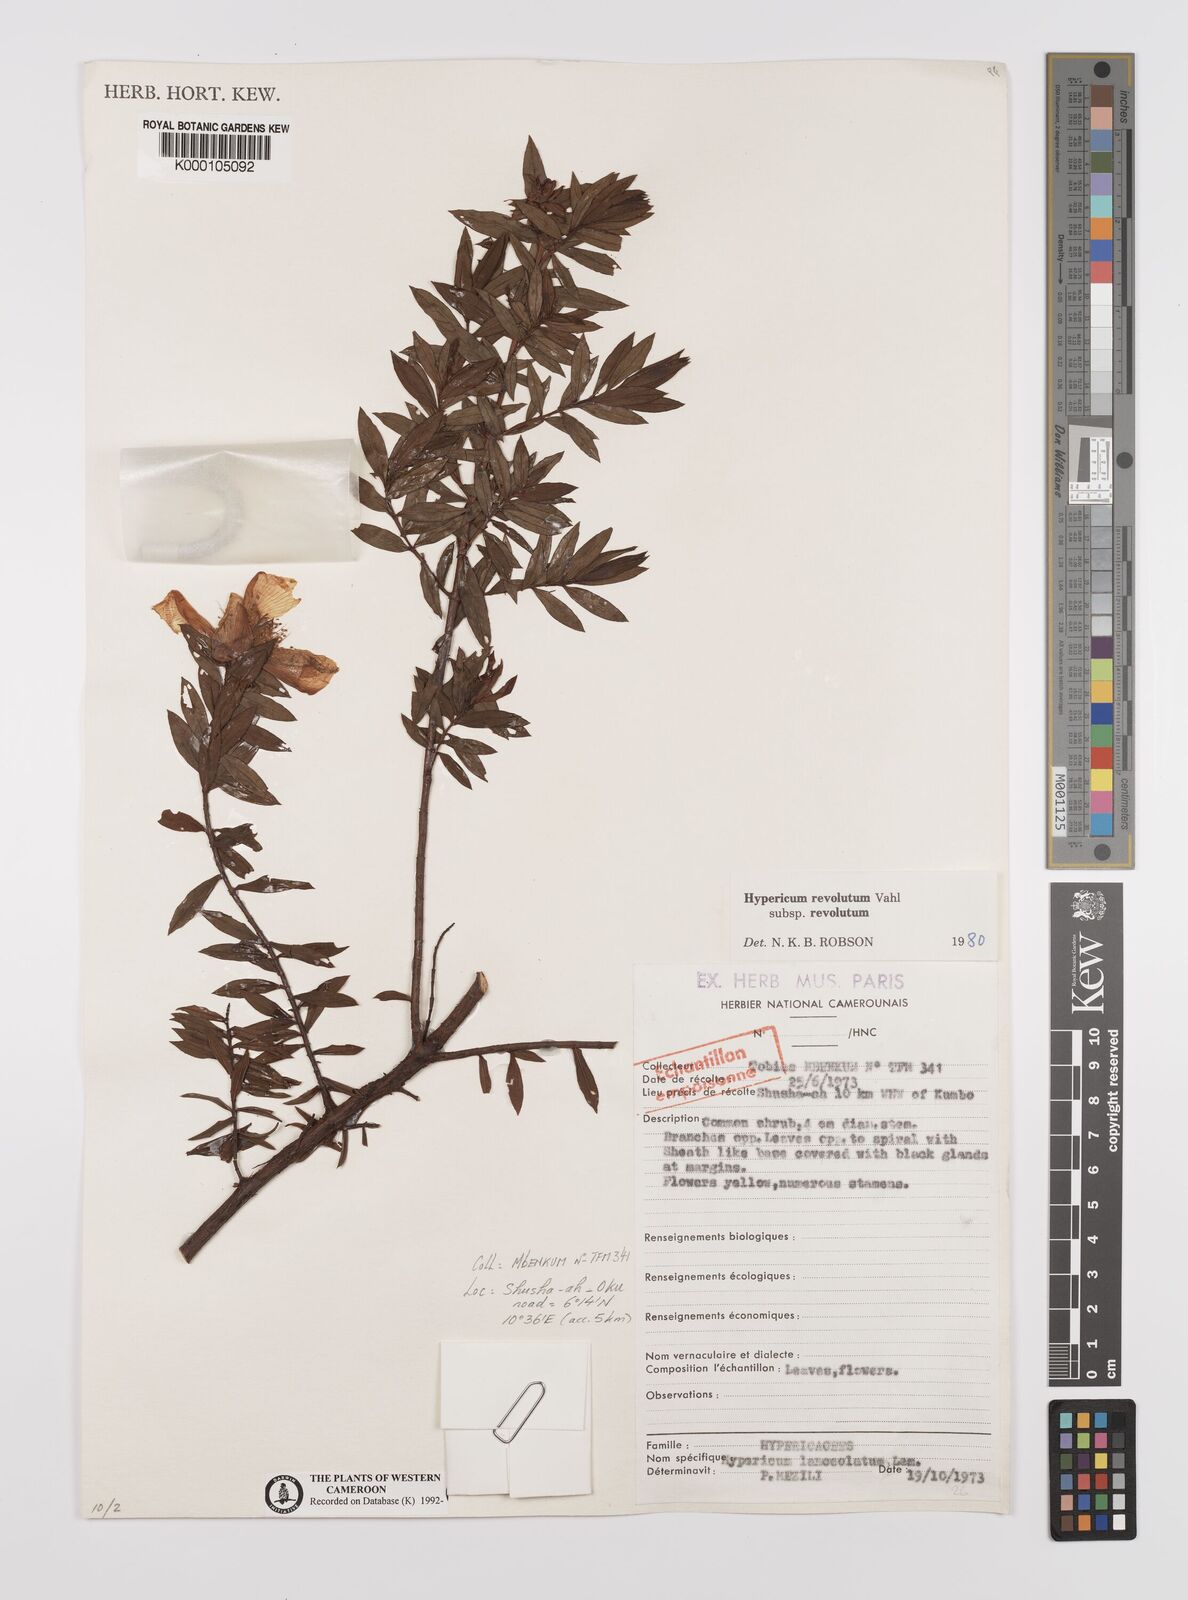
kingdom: Plantae
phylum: Tracheophyta
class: Magnoliopsida
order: Malpighiales
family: Hypericaceae
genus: Hypericum
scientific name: Hypericum revolutum
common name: Curry bush
